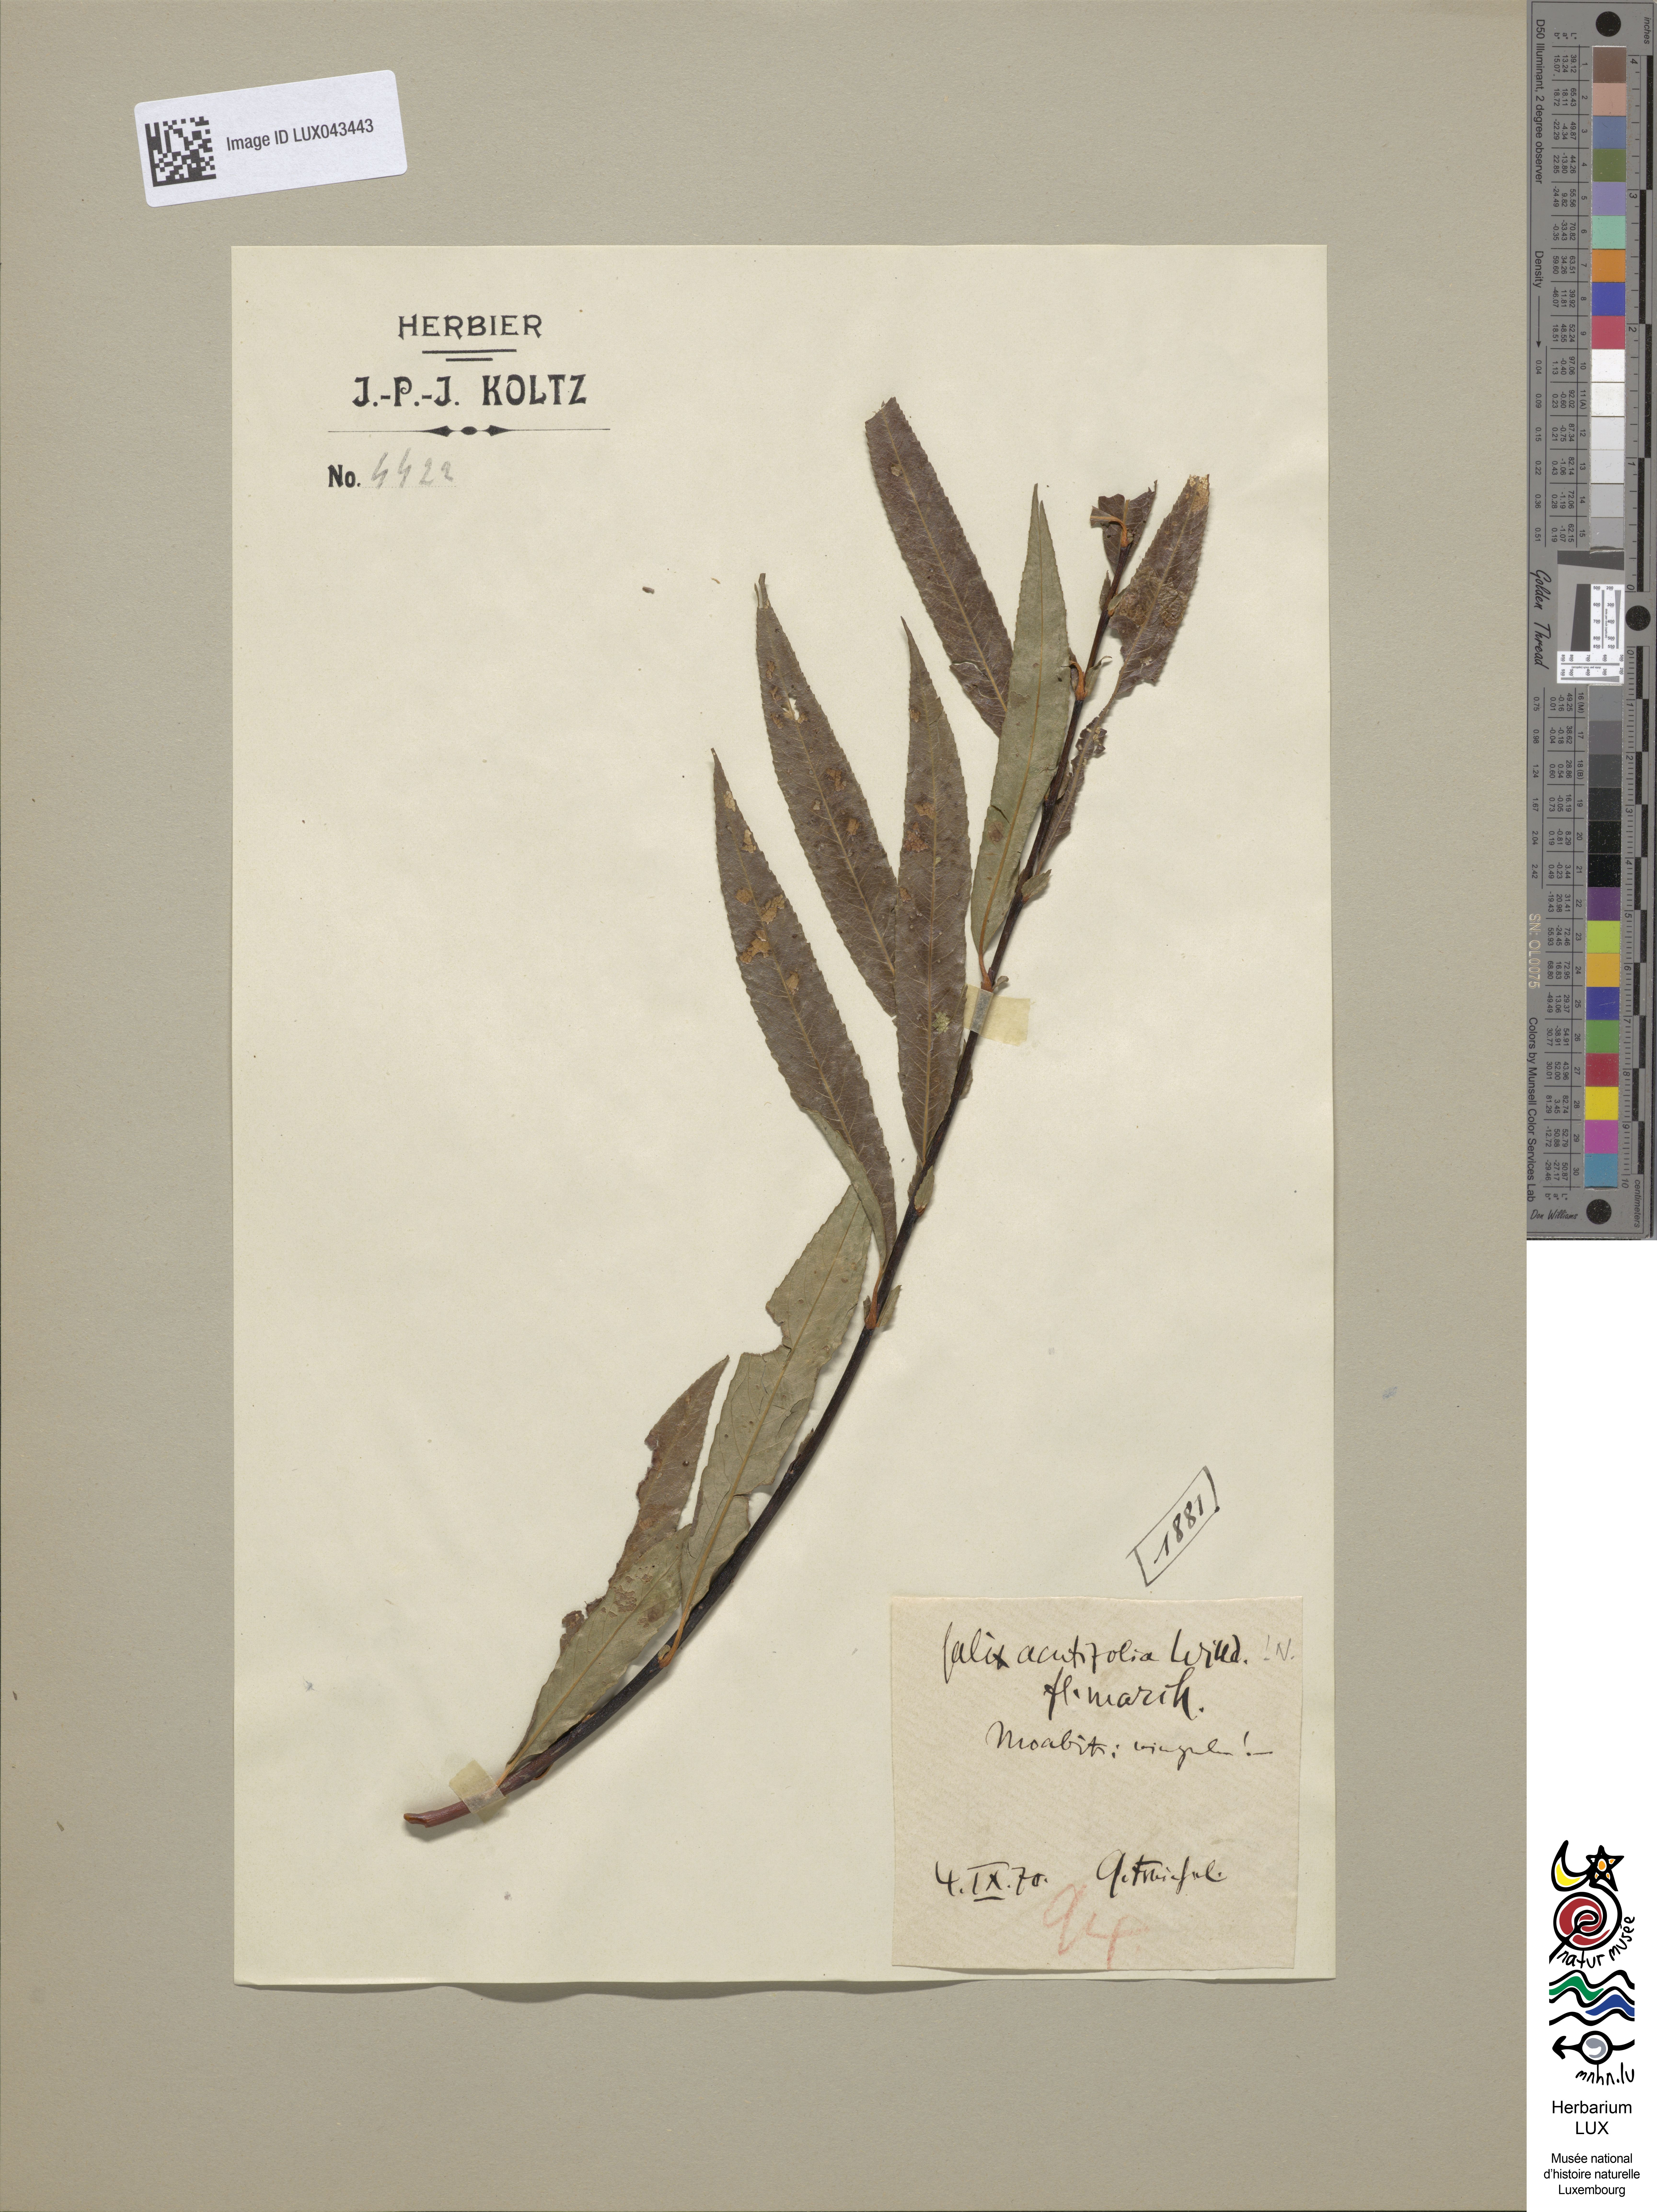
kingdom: Plantae
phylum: Tracheophyta
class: Magnoliopsida
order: Malpighiales
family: Salicaceae
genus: Salix
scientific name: Salix acutifolia
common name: Siberian violet-willow
